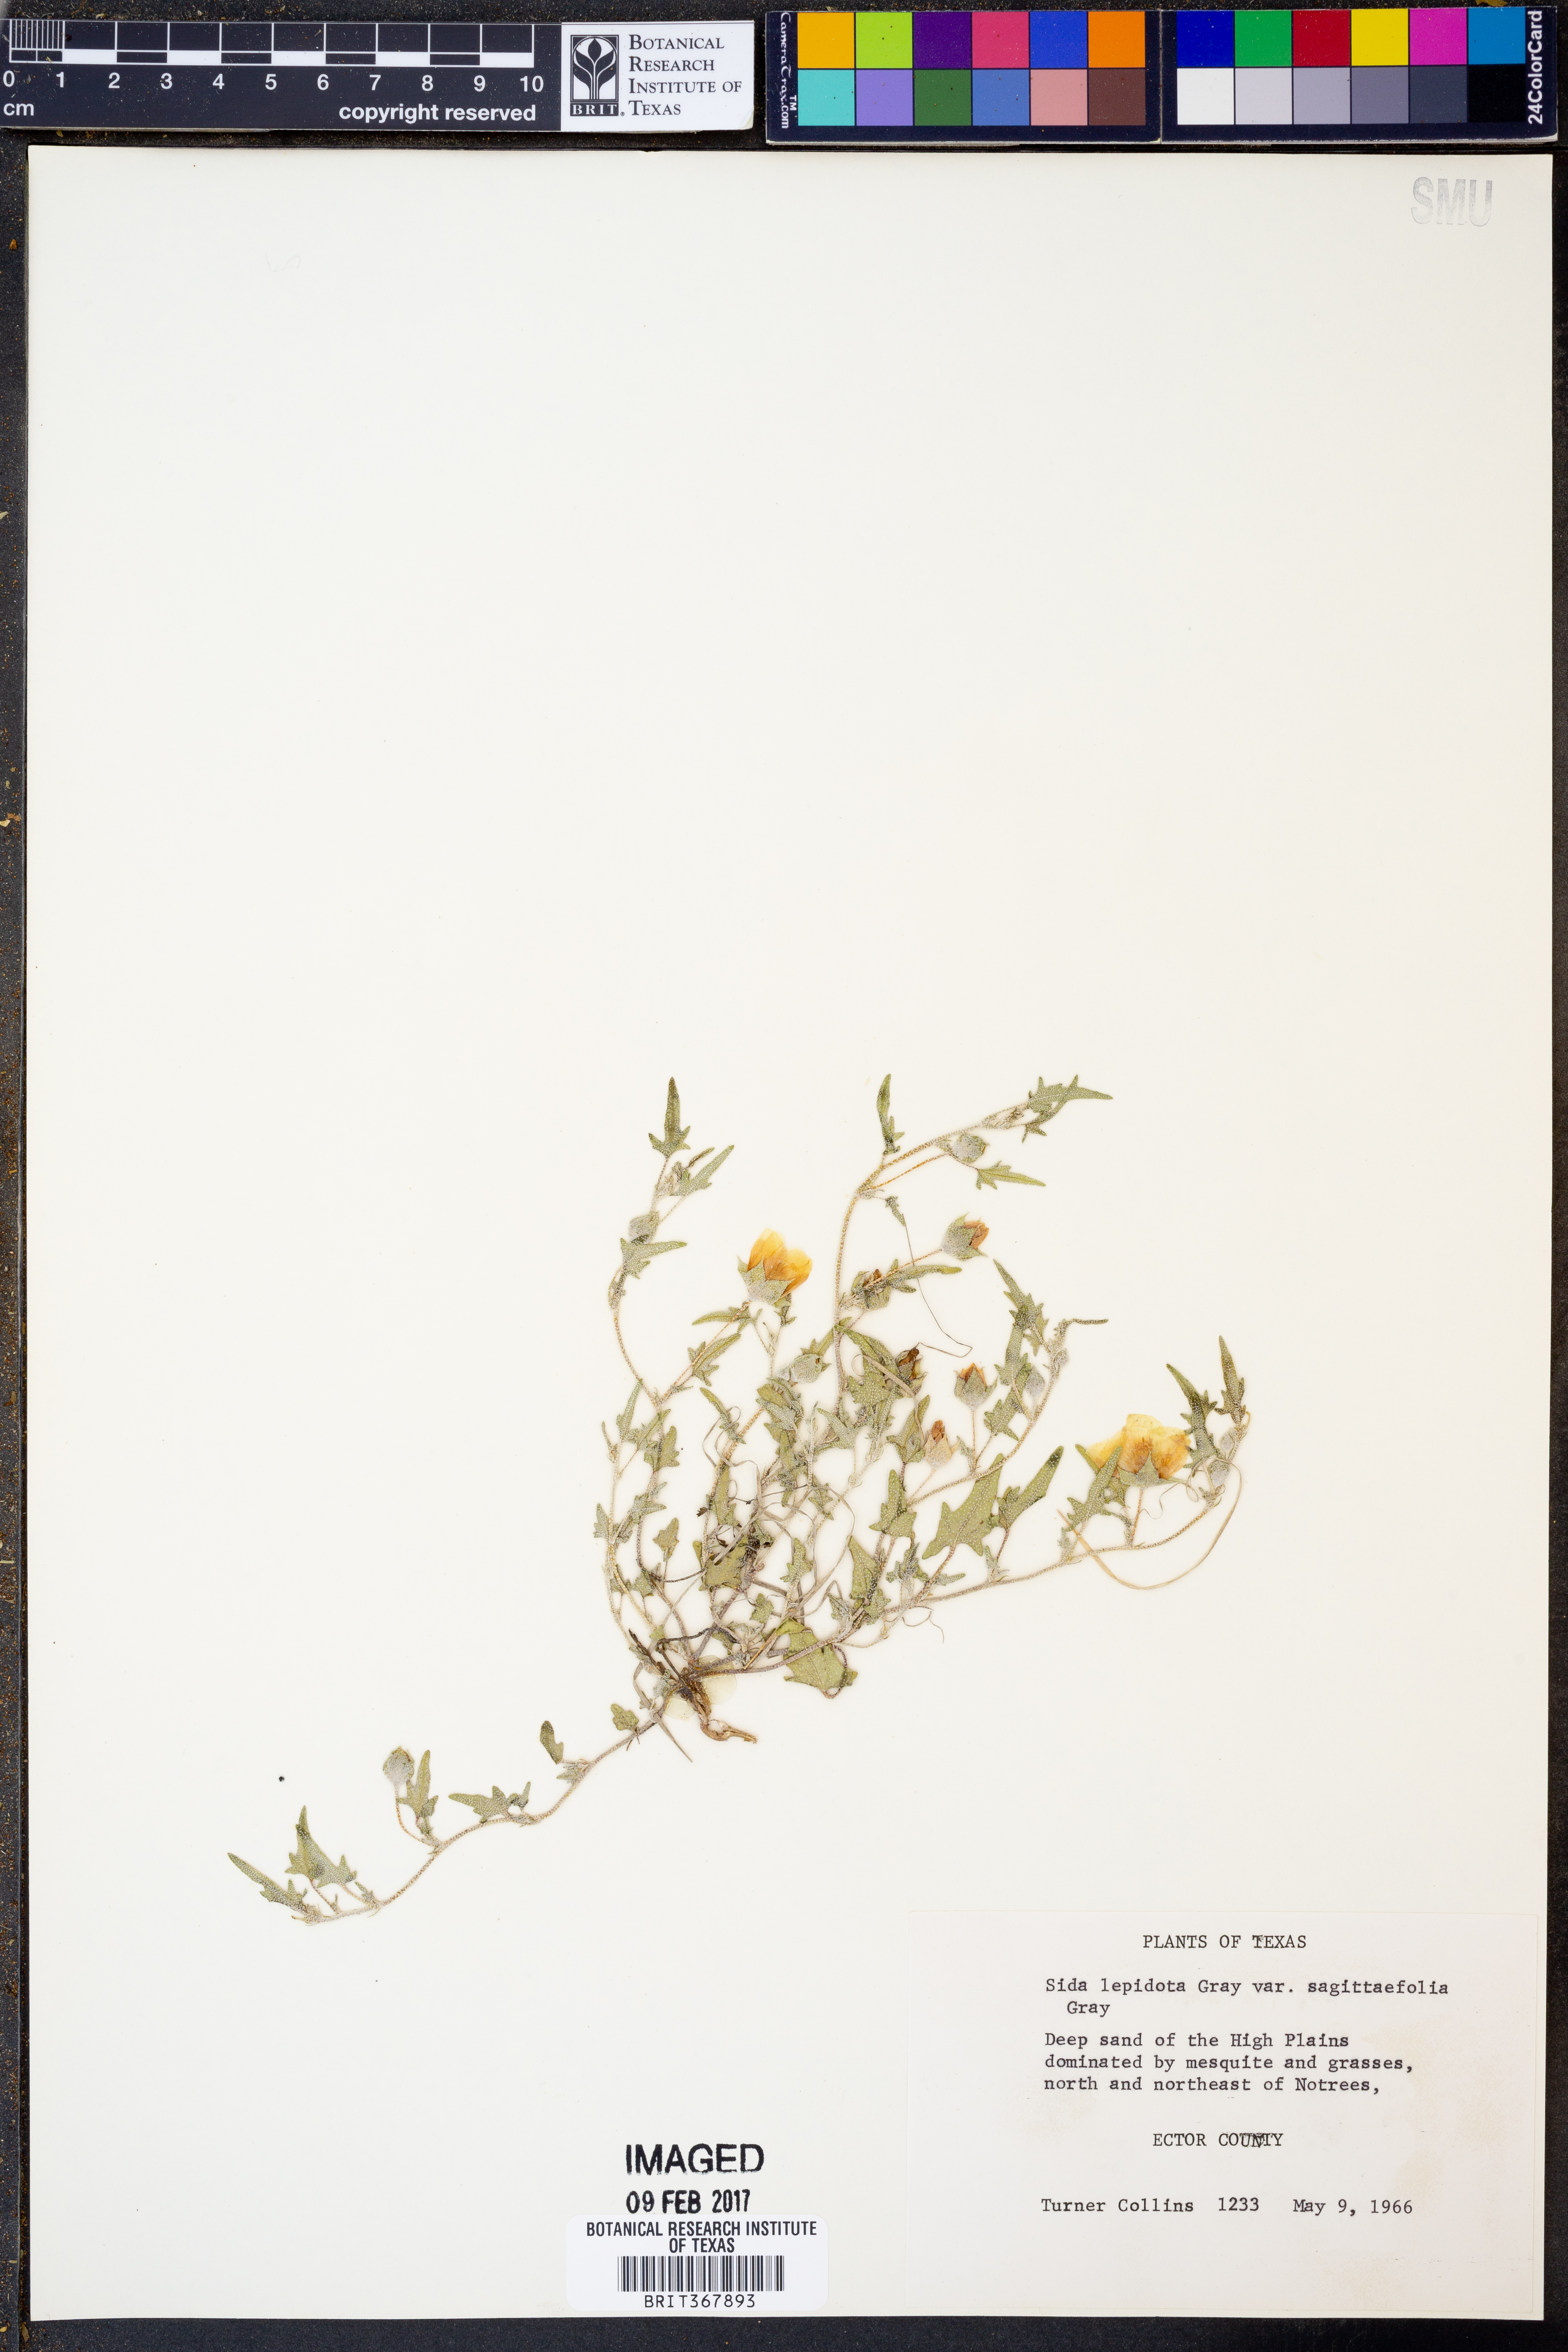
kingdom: Plantae
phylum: Tracheophyta
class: Magnoliopsida
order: Malvales
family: Malvaceae
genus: Malvella
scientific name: Malvella sagittifolia
